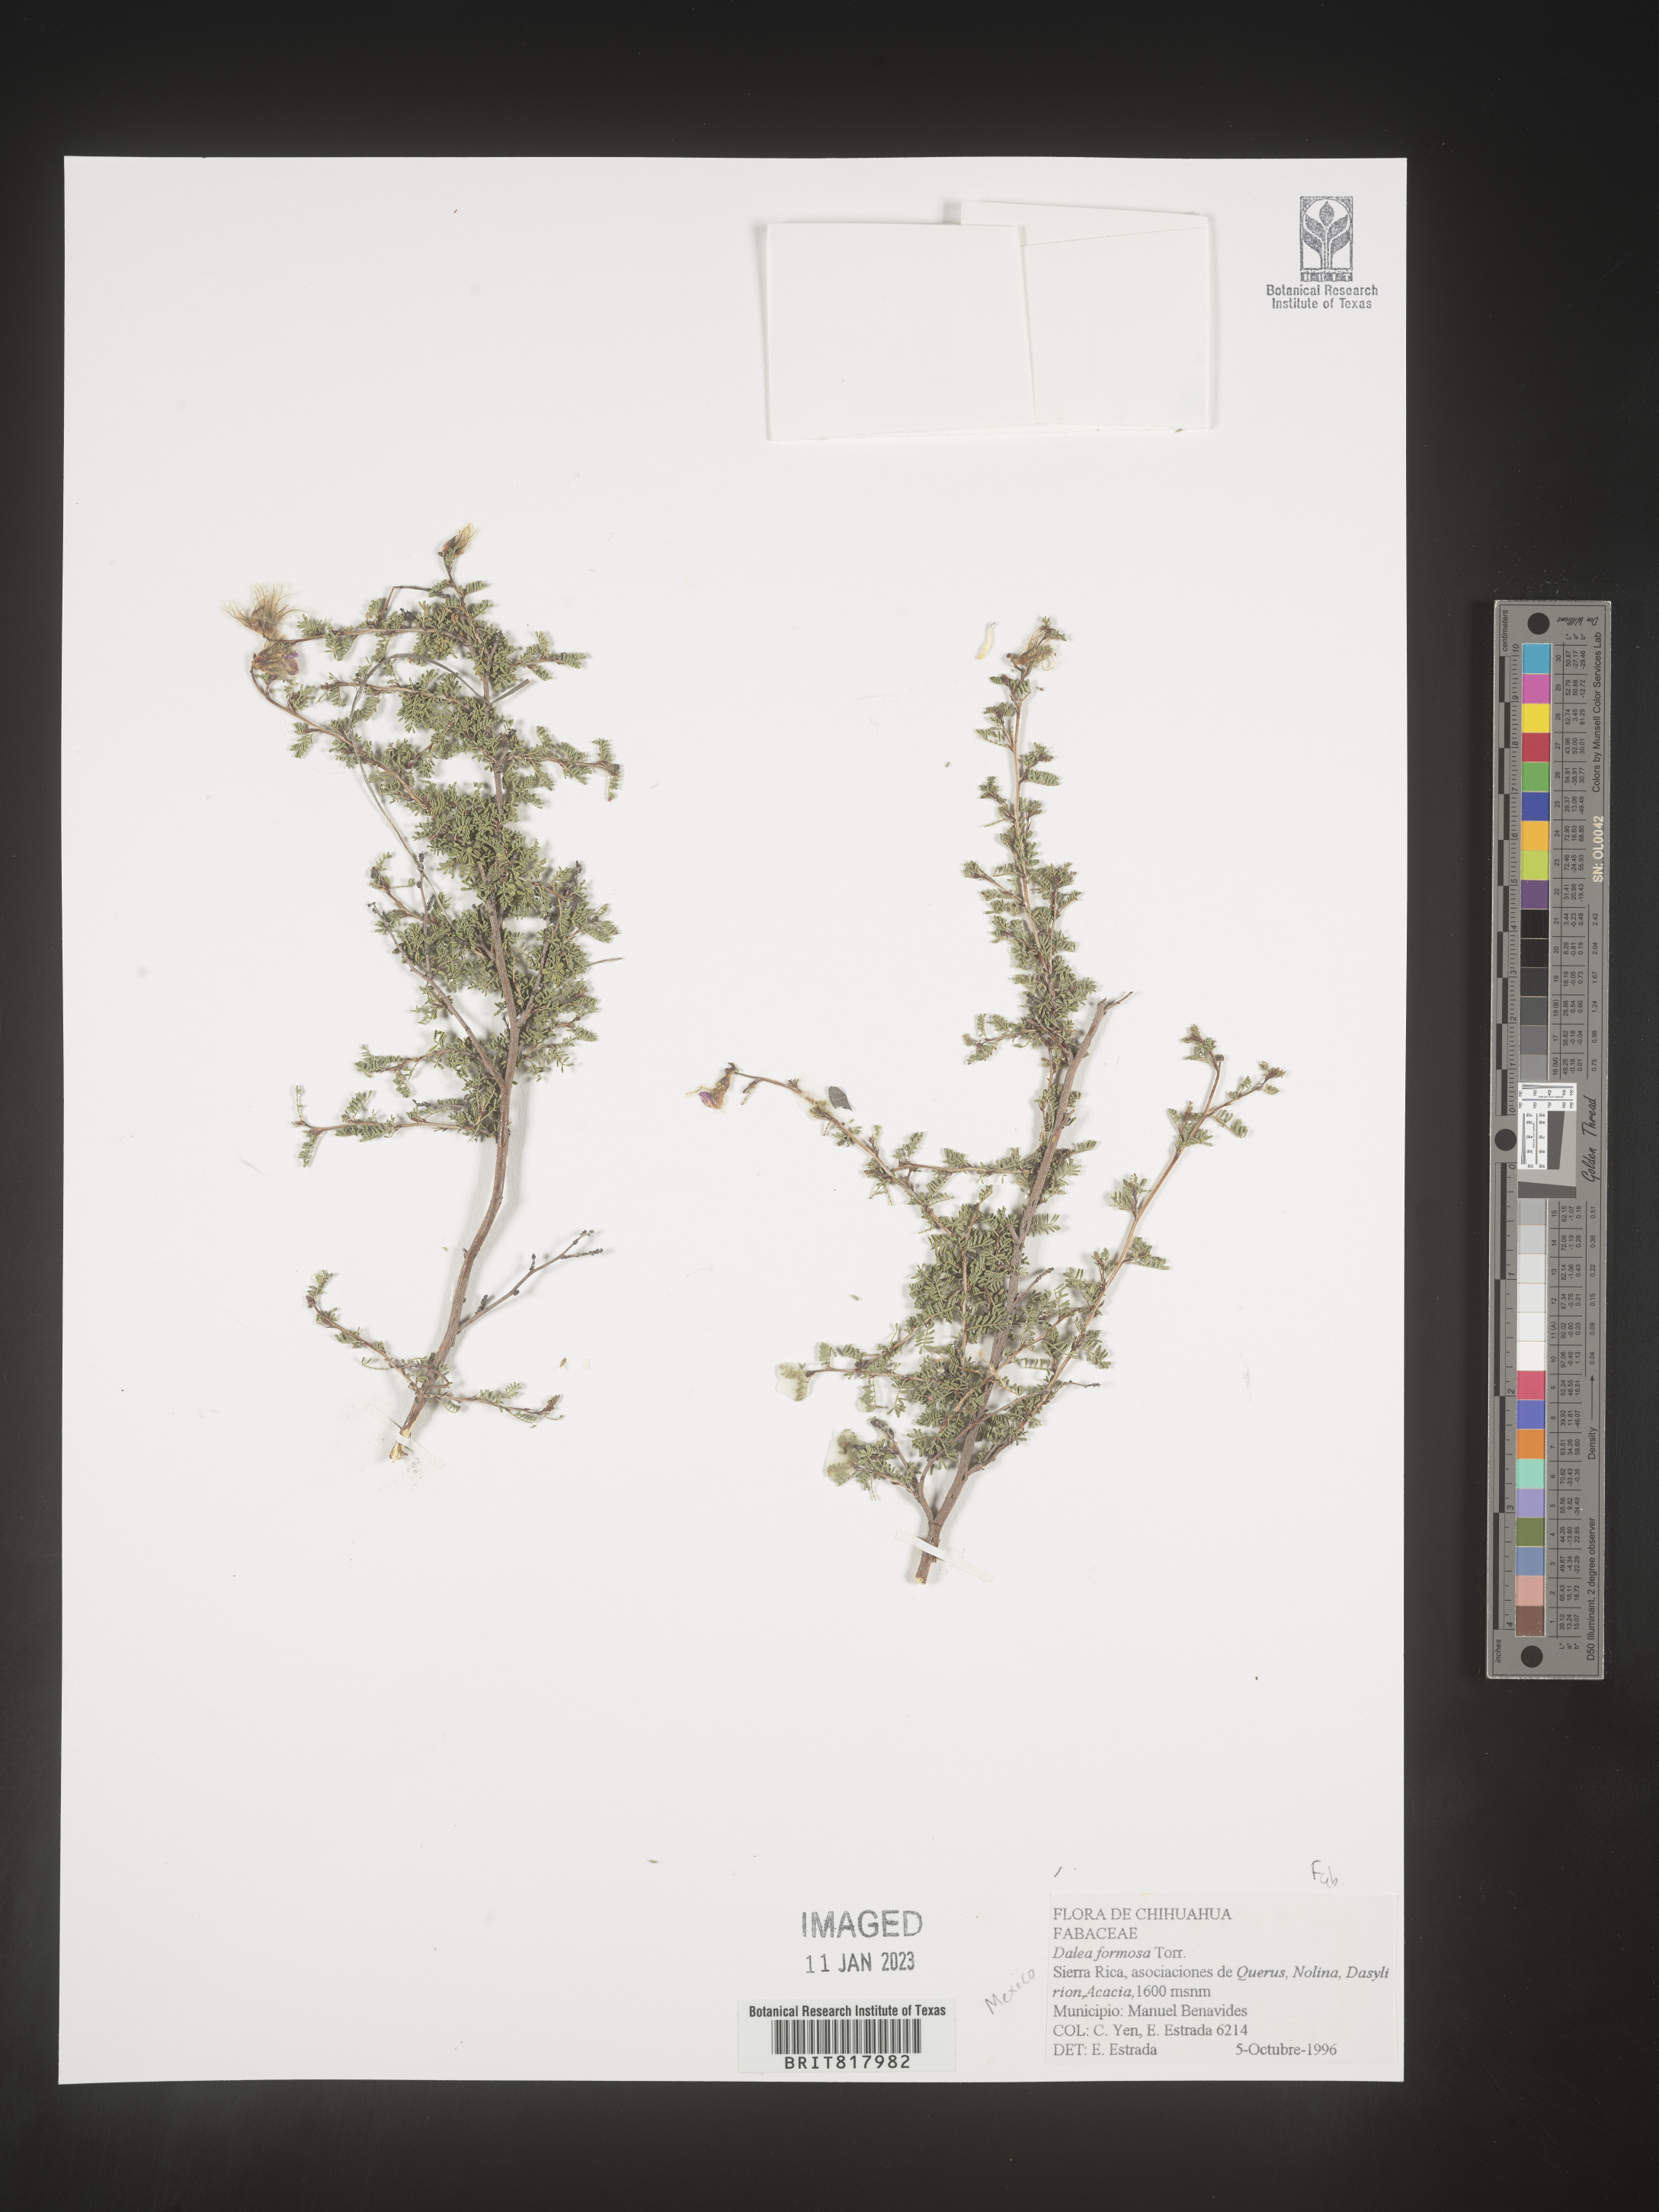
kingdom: Plantae
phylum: Tracheophyta
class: Magnoliopsida
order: Fabales
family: Fabaceae
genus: Dalea
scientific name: Dalea
